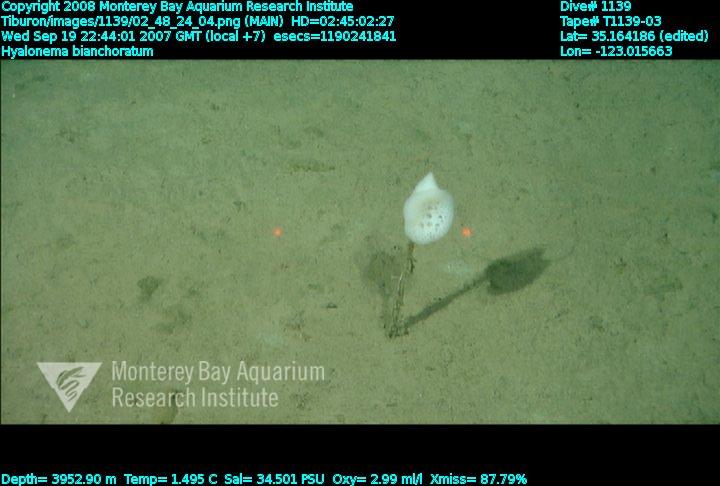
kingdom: Animalia
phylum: Porifera
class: Hexactinellida
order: Amphidiscosida
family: Hyalonematidae
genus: Hyalonema
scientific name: Hyalonema bianchoratum
